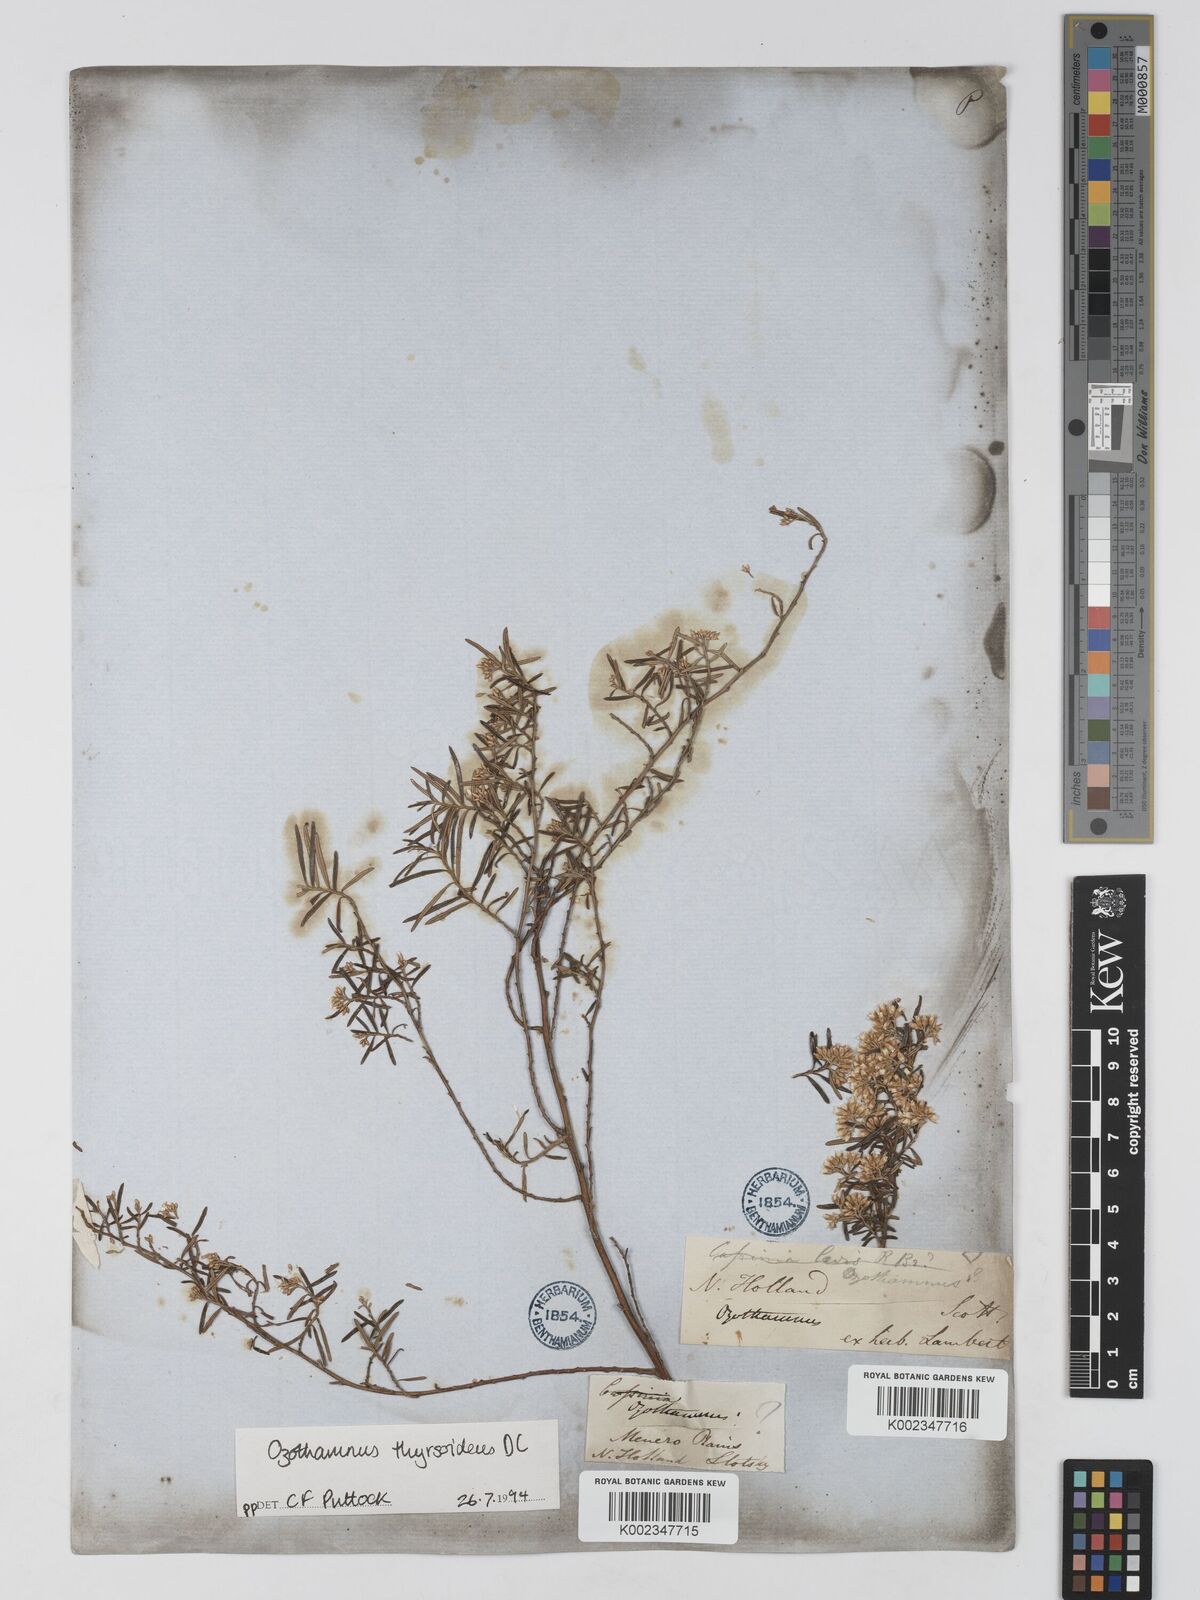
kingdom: Plantae
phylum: Tracheophyta
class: Magnoliopsida
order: Asterales
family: Asteraceae
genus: Ozothamnus
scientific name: Ozothamnus thyrsoideus
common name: Snow-in-summer
